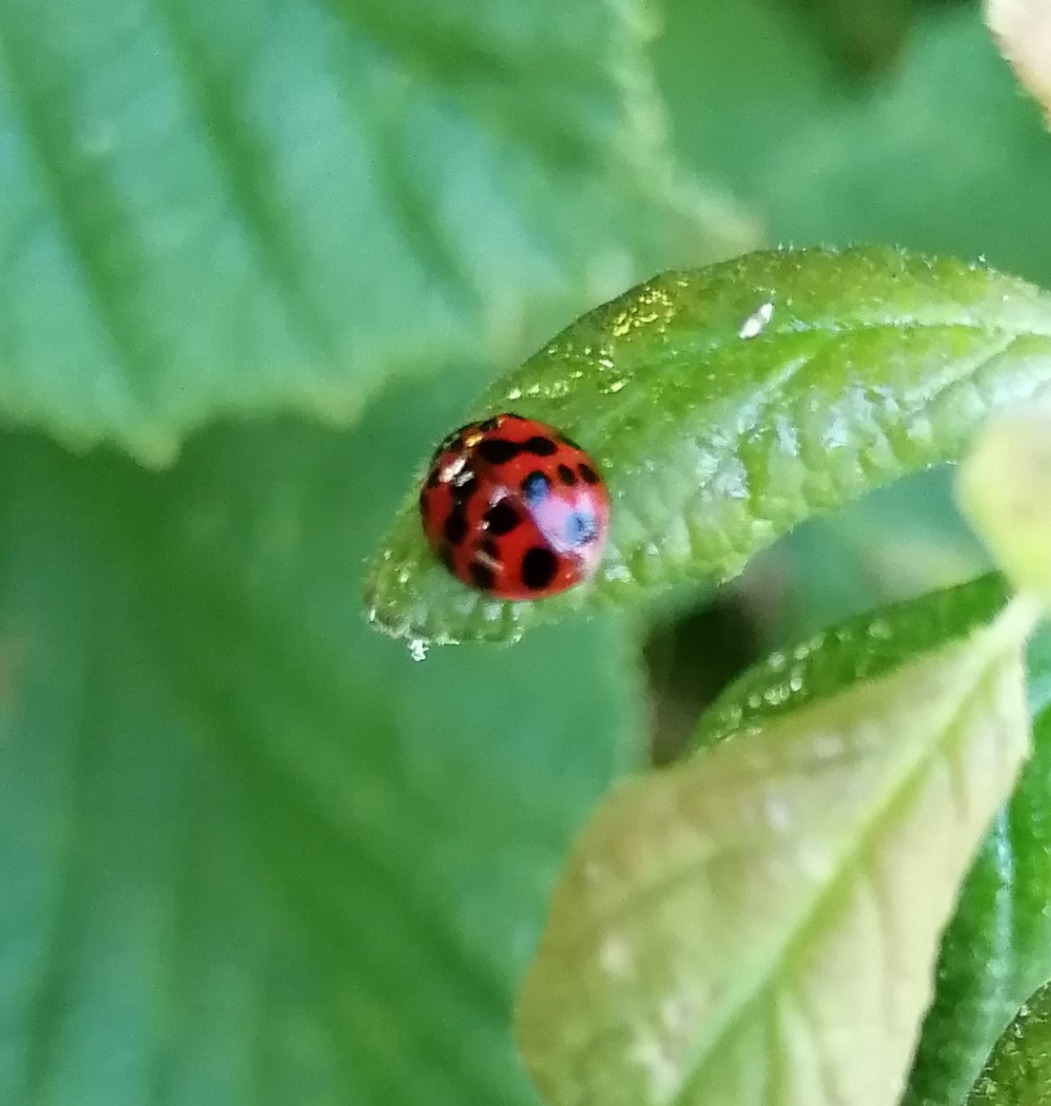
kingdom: Animalia
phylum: Arthropoda
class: Insecta
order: Coleoptera
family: Coccinellidae
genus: Harmonia
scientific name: Harmonia axyridis
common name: Harlekinmariehøne
